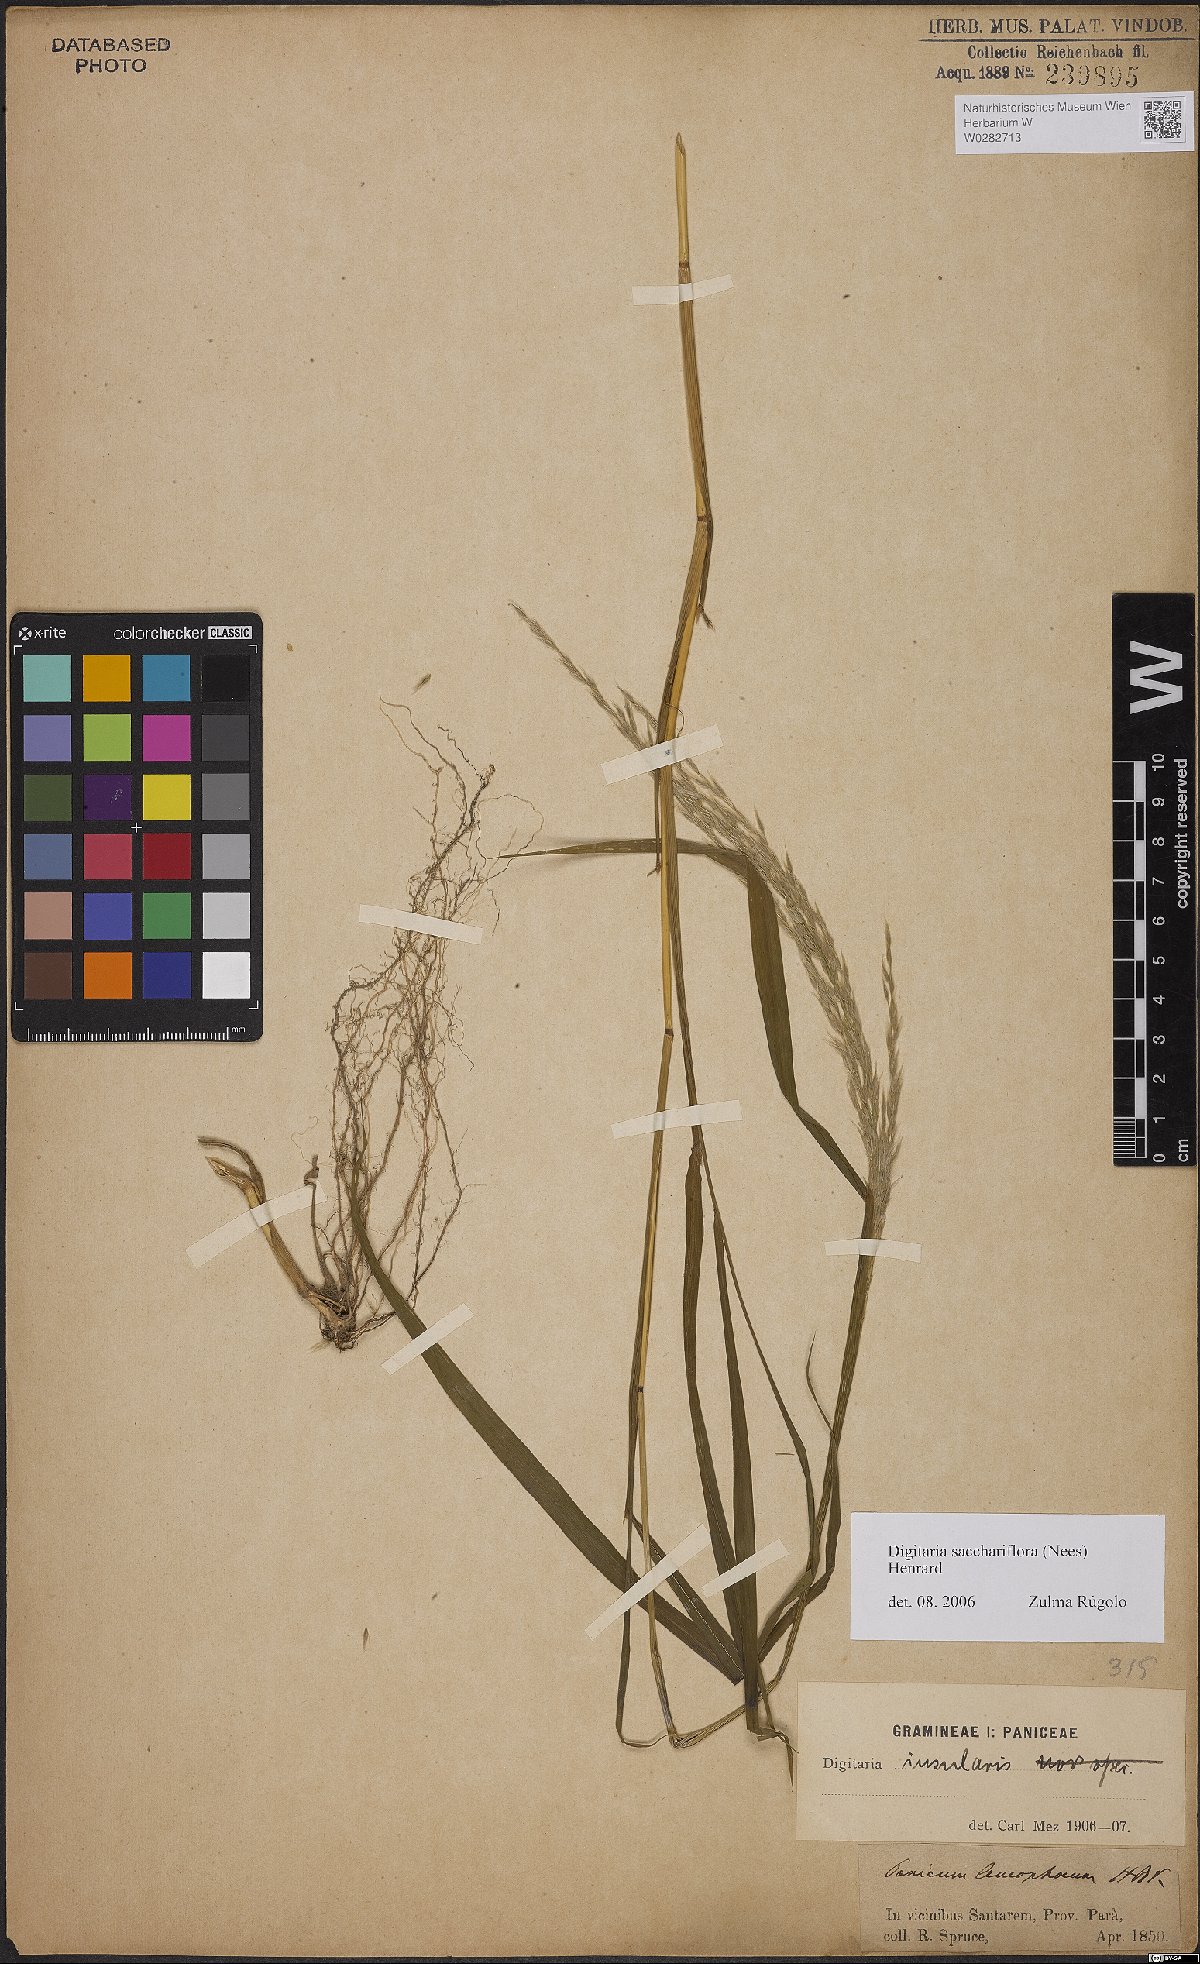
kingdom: Plantae
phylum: Tracheophyta
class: Liliopsida
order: Poales
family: Poaceae
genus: Digitaria
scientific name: Digitaria sacchariflora
